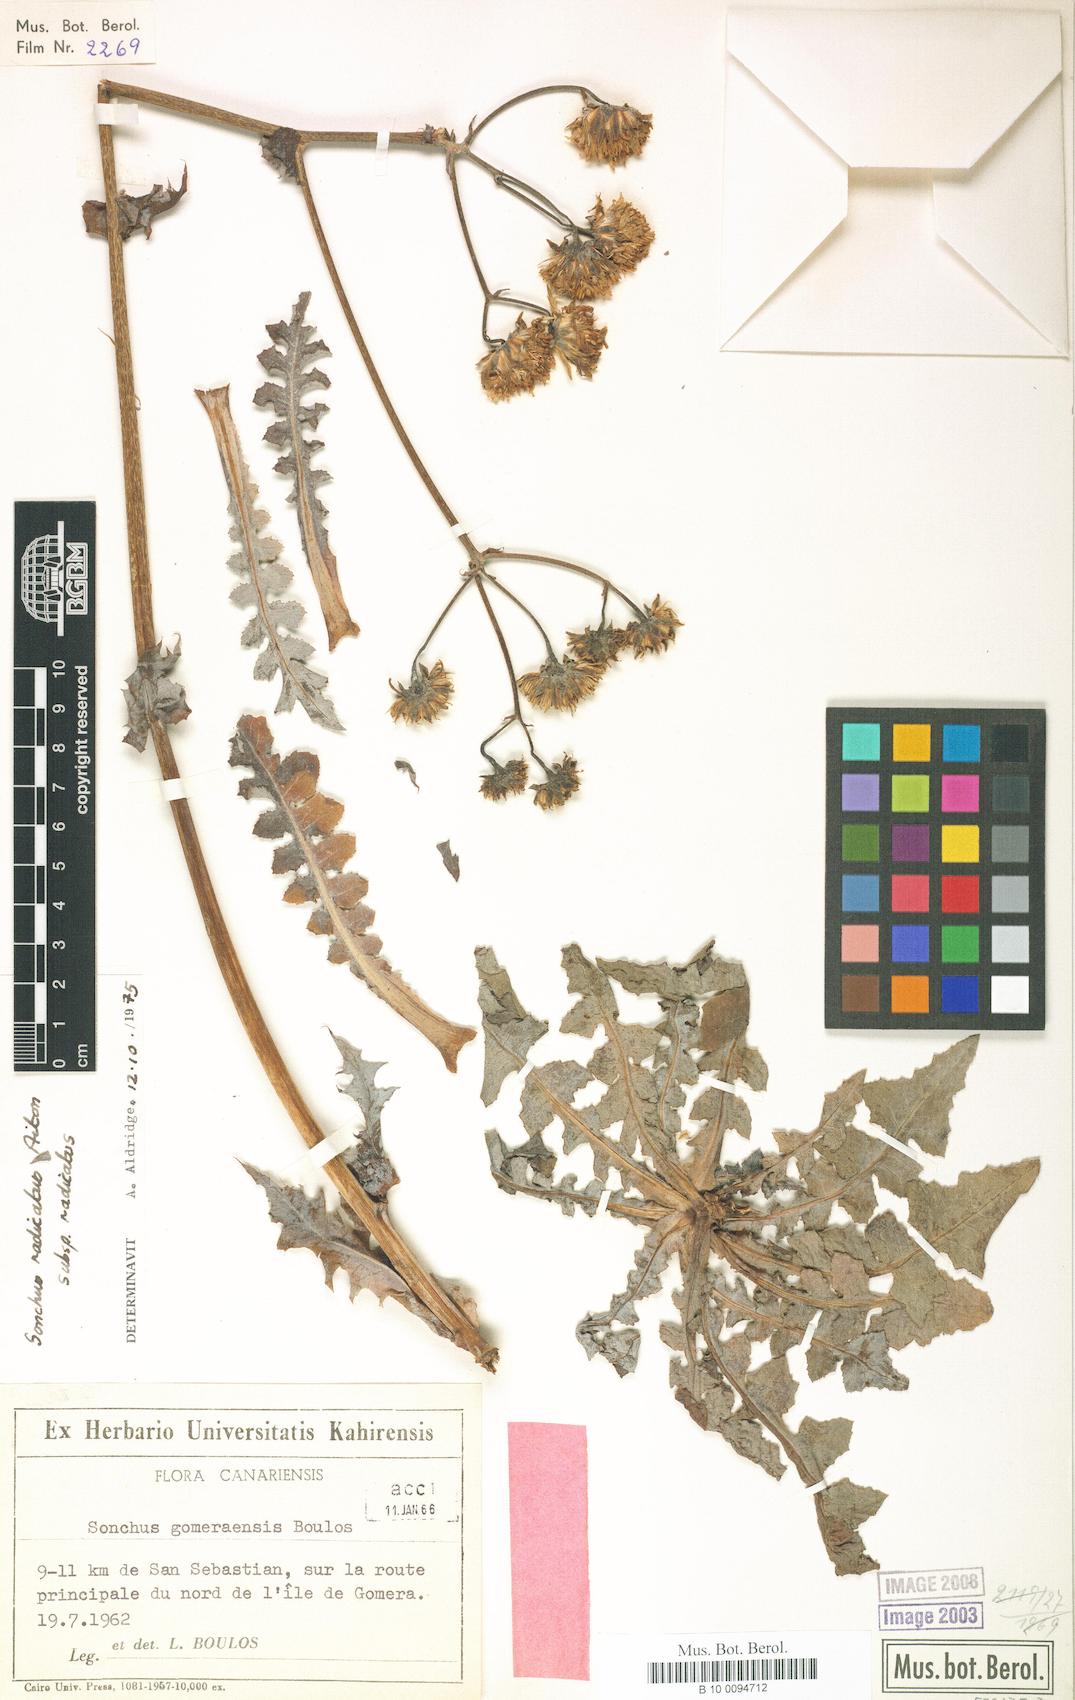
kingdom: Plantae
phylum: Tracheophyta
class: Magnoliopsida
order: Asterales
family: Asteraceae
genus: Sonchus
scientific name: Sonchus radicatus
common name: Long-rooted sow-thistle
